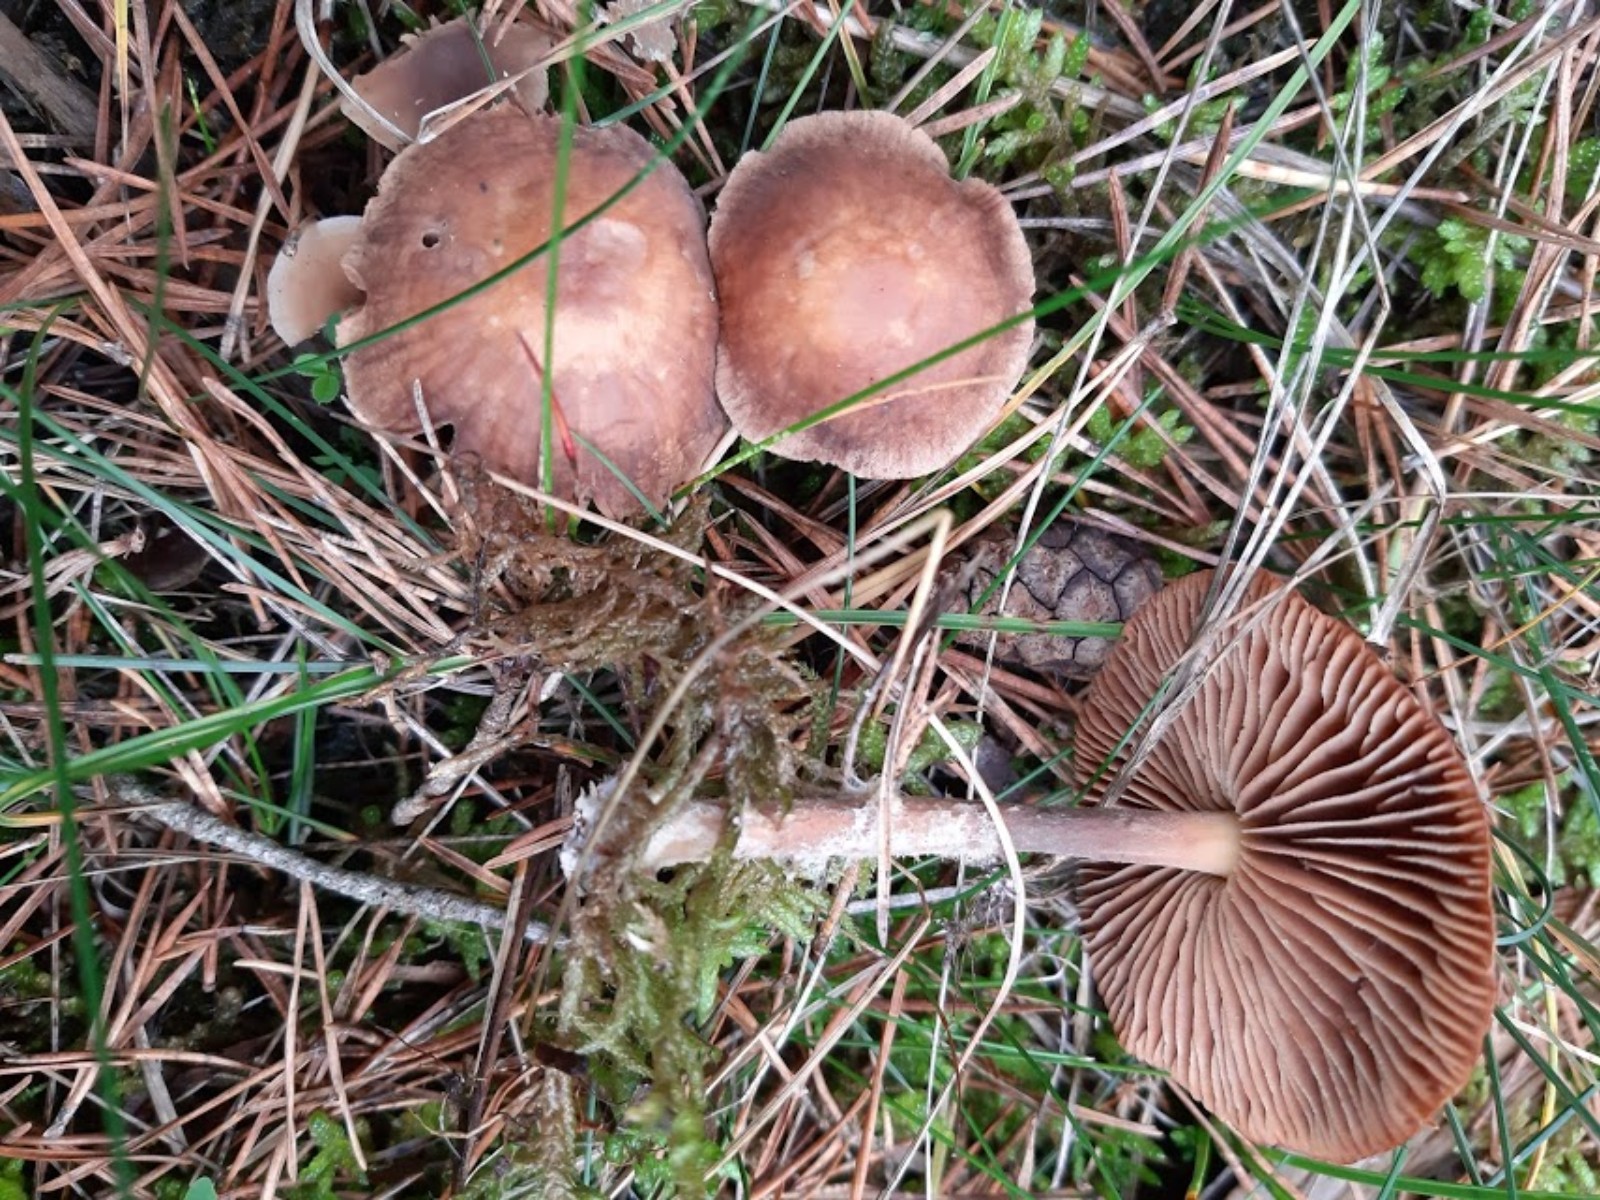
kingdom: Fungi
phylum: Basidiomycota
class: Agaricomycetes
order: Agaricales
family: Omphalotaceae
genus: Collybiopsis
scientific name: Collybiopsis peronata
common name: bestøvlet fladhat
